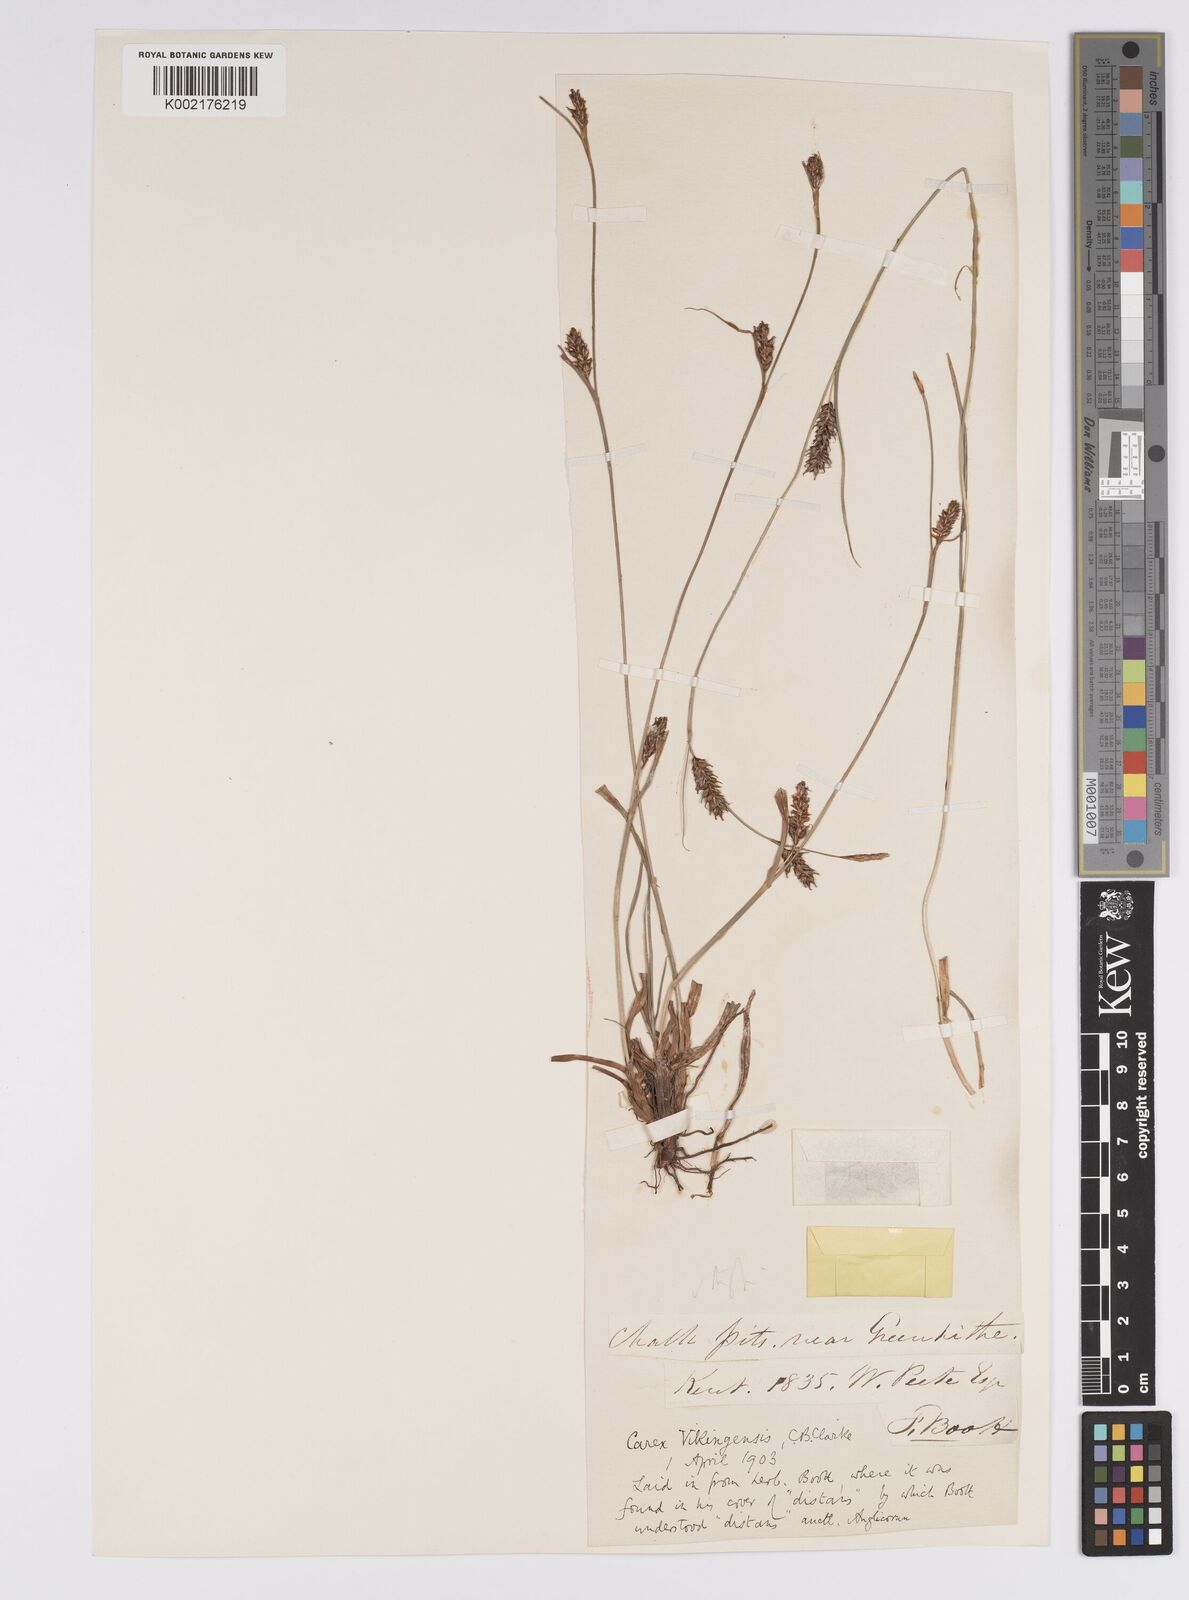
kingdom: Plantae
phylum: Tracheophyta
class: Liliopsida
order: Poales
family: Cyperaceae
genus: Carex
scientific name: Carex distans
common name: Distant sedge
